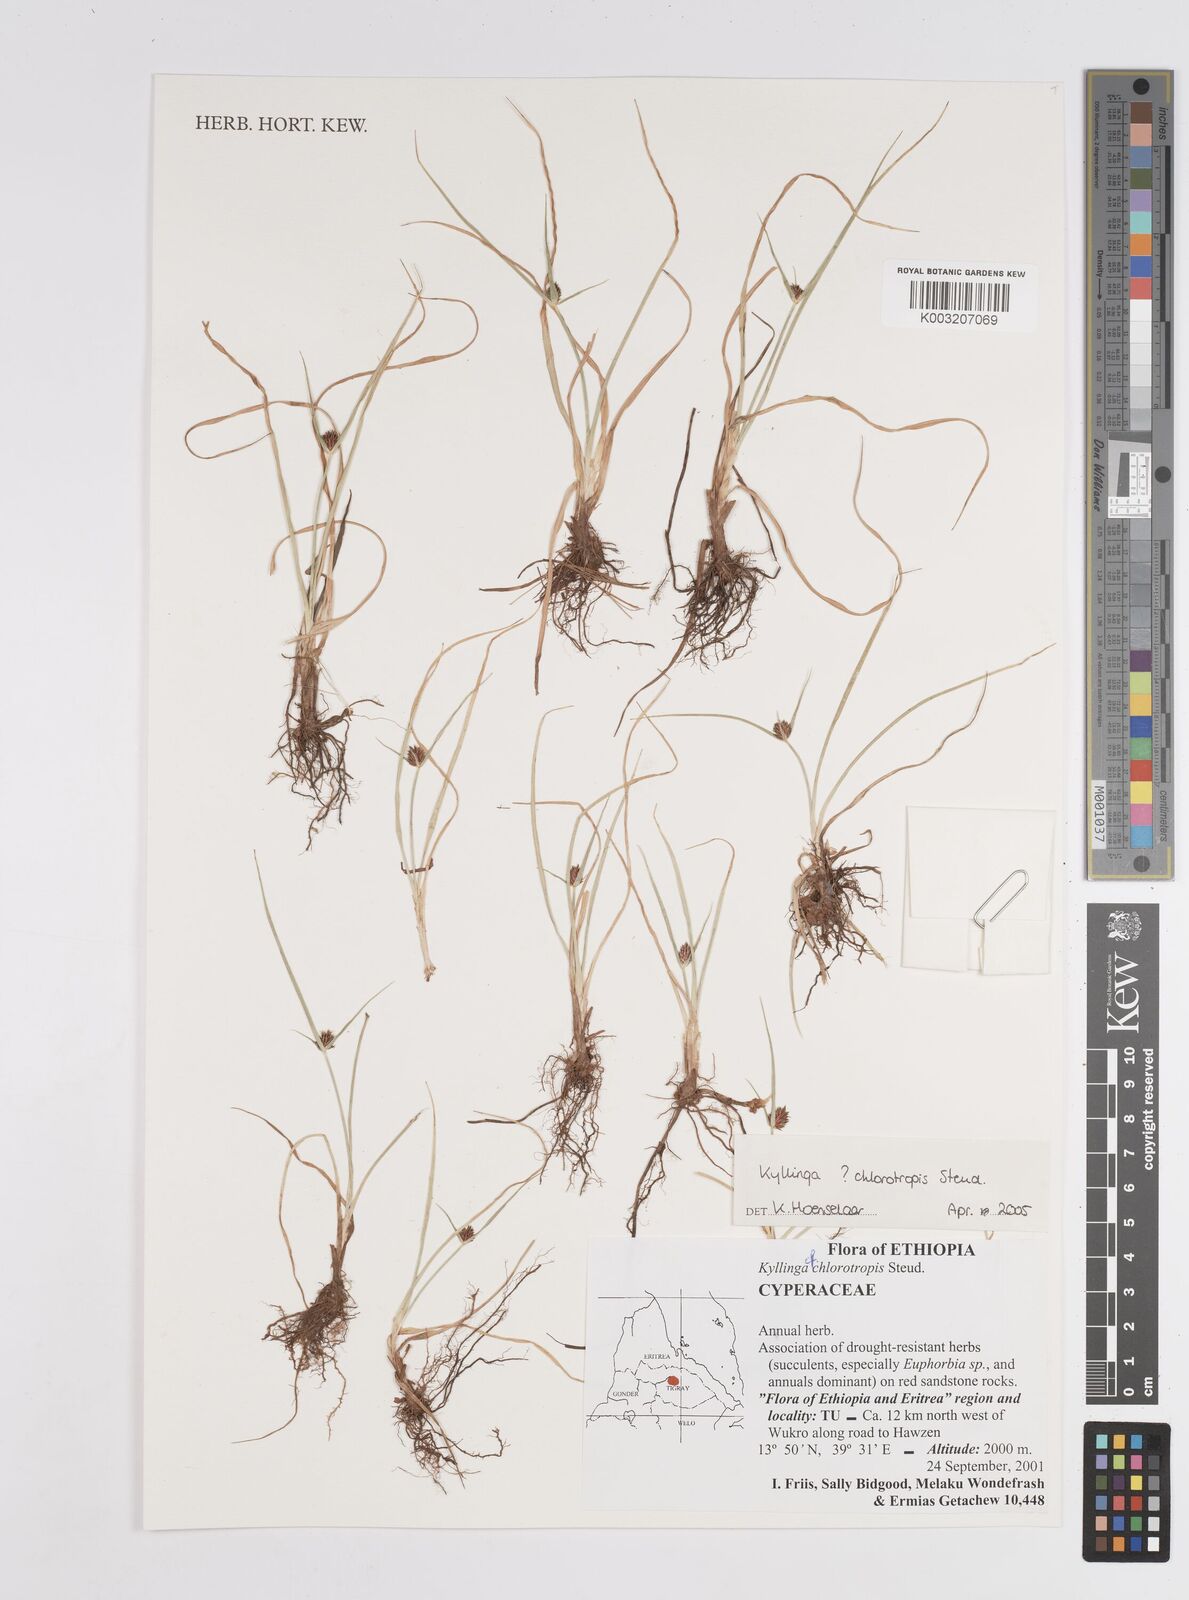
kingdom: Plantae
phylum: Tracheophyta
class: Liliopsida
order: Poales
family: Cyperaceae
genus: Cyperus
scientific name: Cyperus chlorotropis
